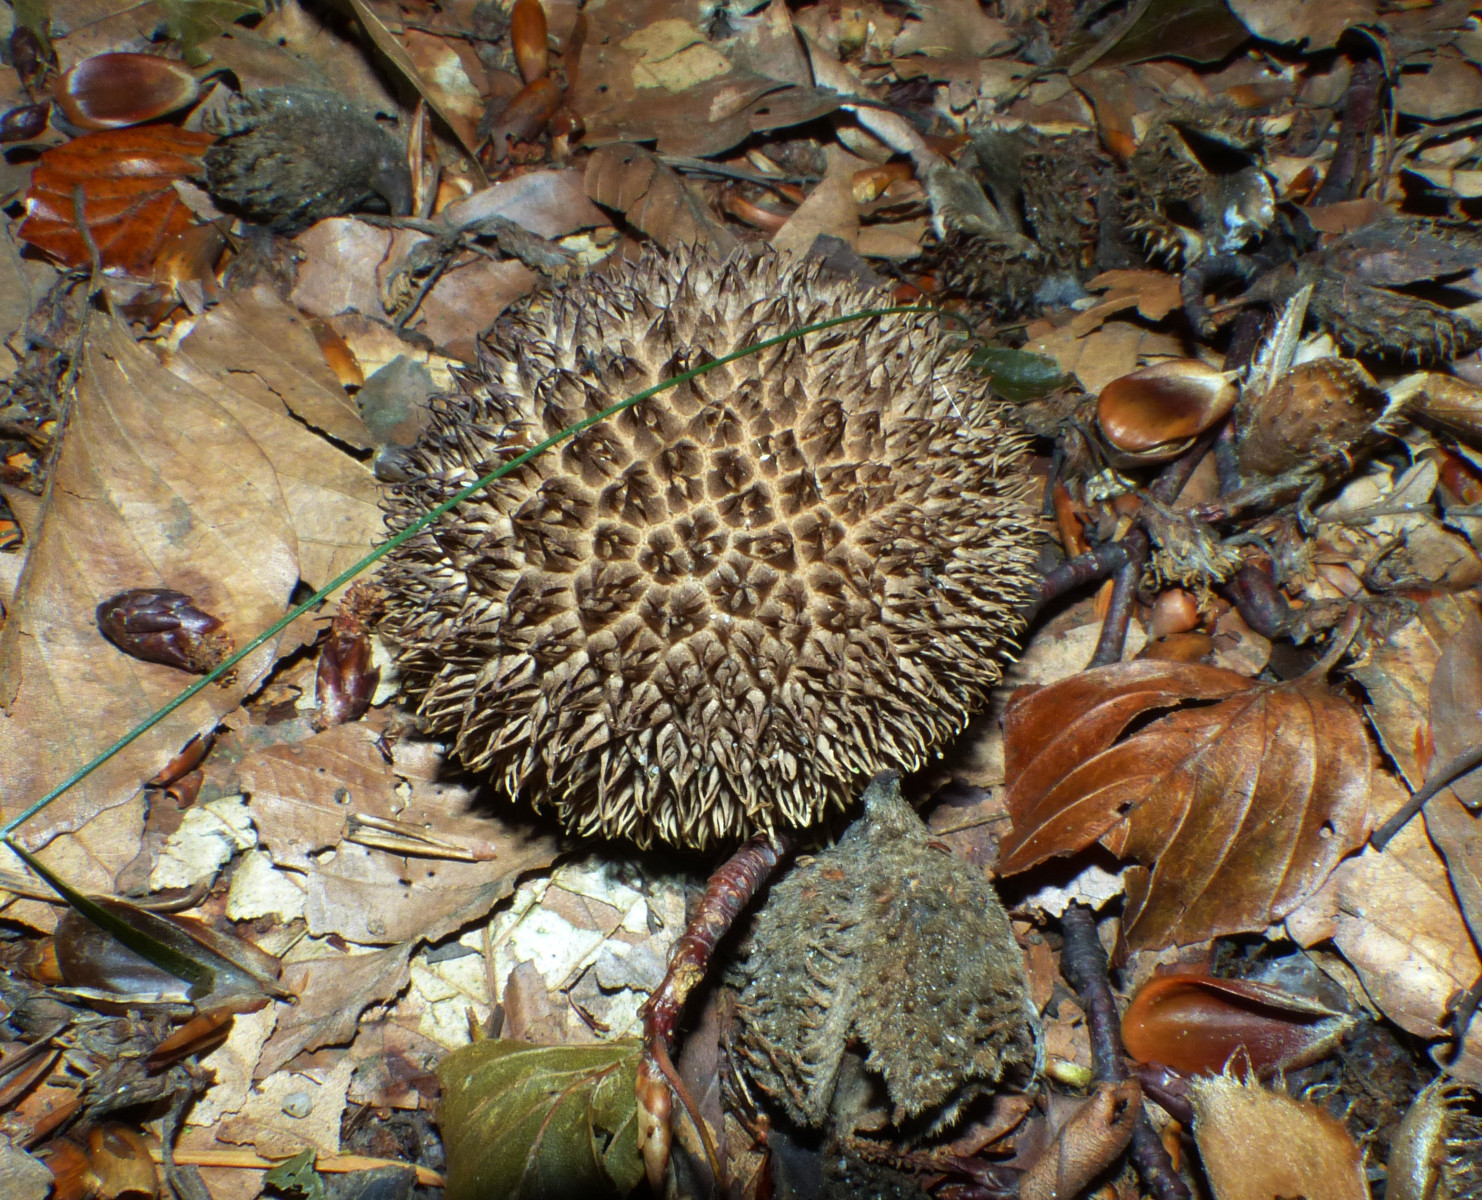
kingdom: Fungi
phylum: Basidiomycota
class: Agaricomycetes
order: Agaricales
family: Lycoperdaceae
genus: Lycoperdon
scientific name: Lycoperdon echinatum
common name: pindsvine-støvbold
